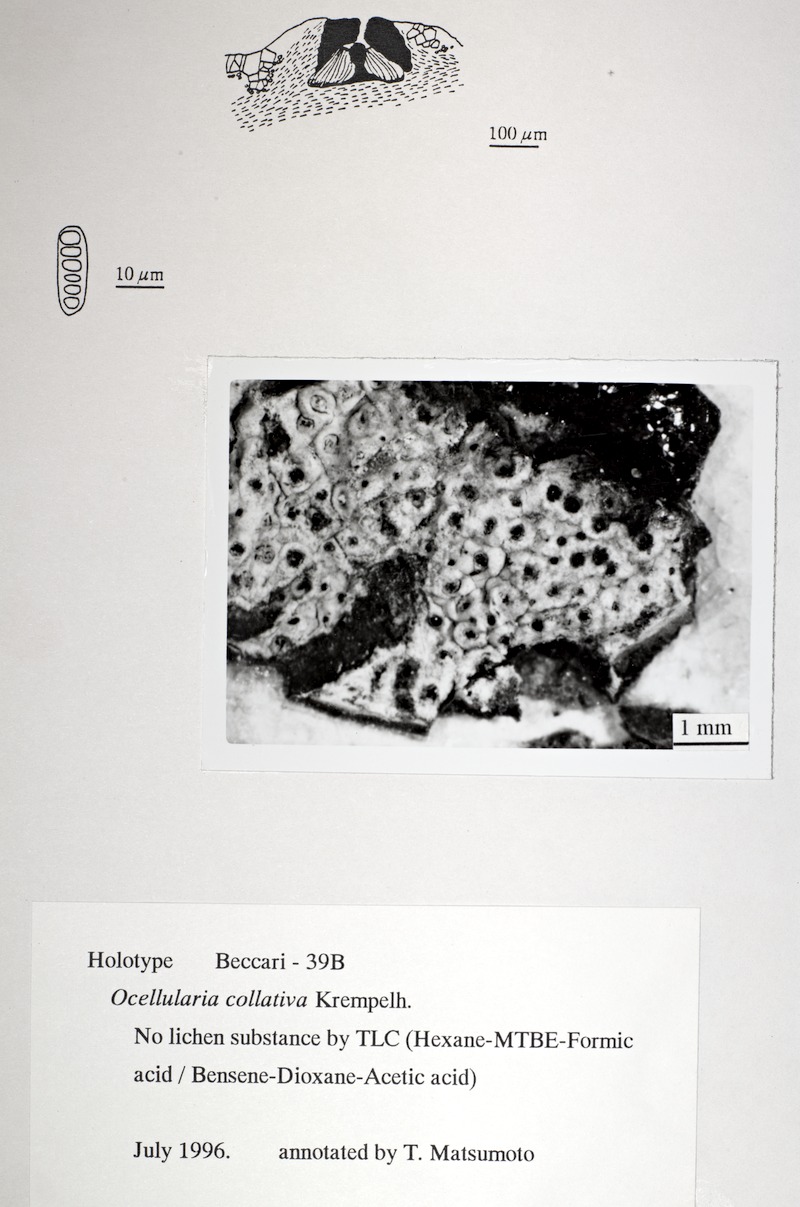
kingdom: Fungi
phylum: Ascomycota
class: Lecanoromycetes
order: Ostropales
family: Graphidaceae
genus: Ocellularia
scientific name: Ocellularia collativa
